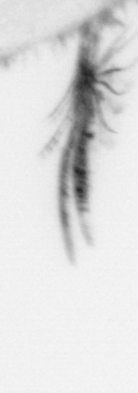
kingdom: Animalia
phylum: Annelida
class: Polychaeta
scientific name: Polychaeta
